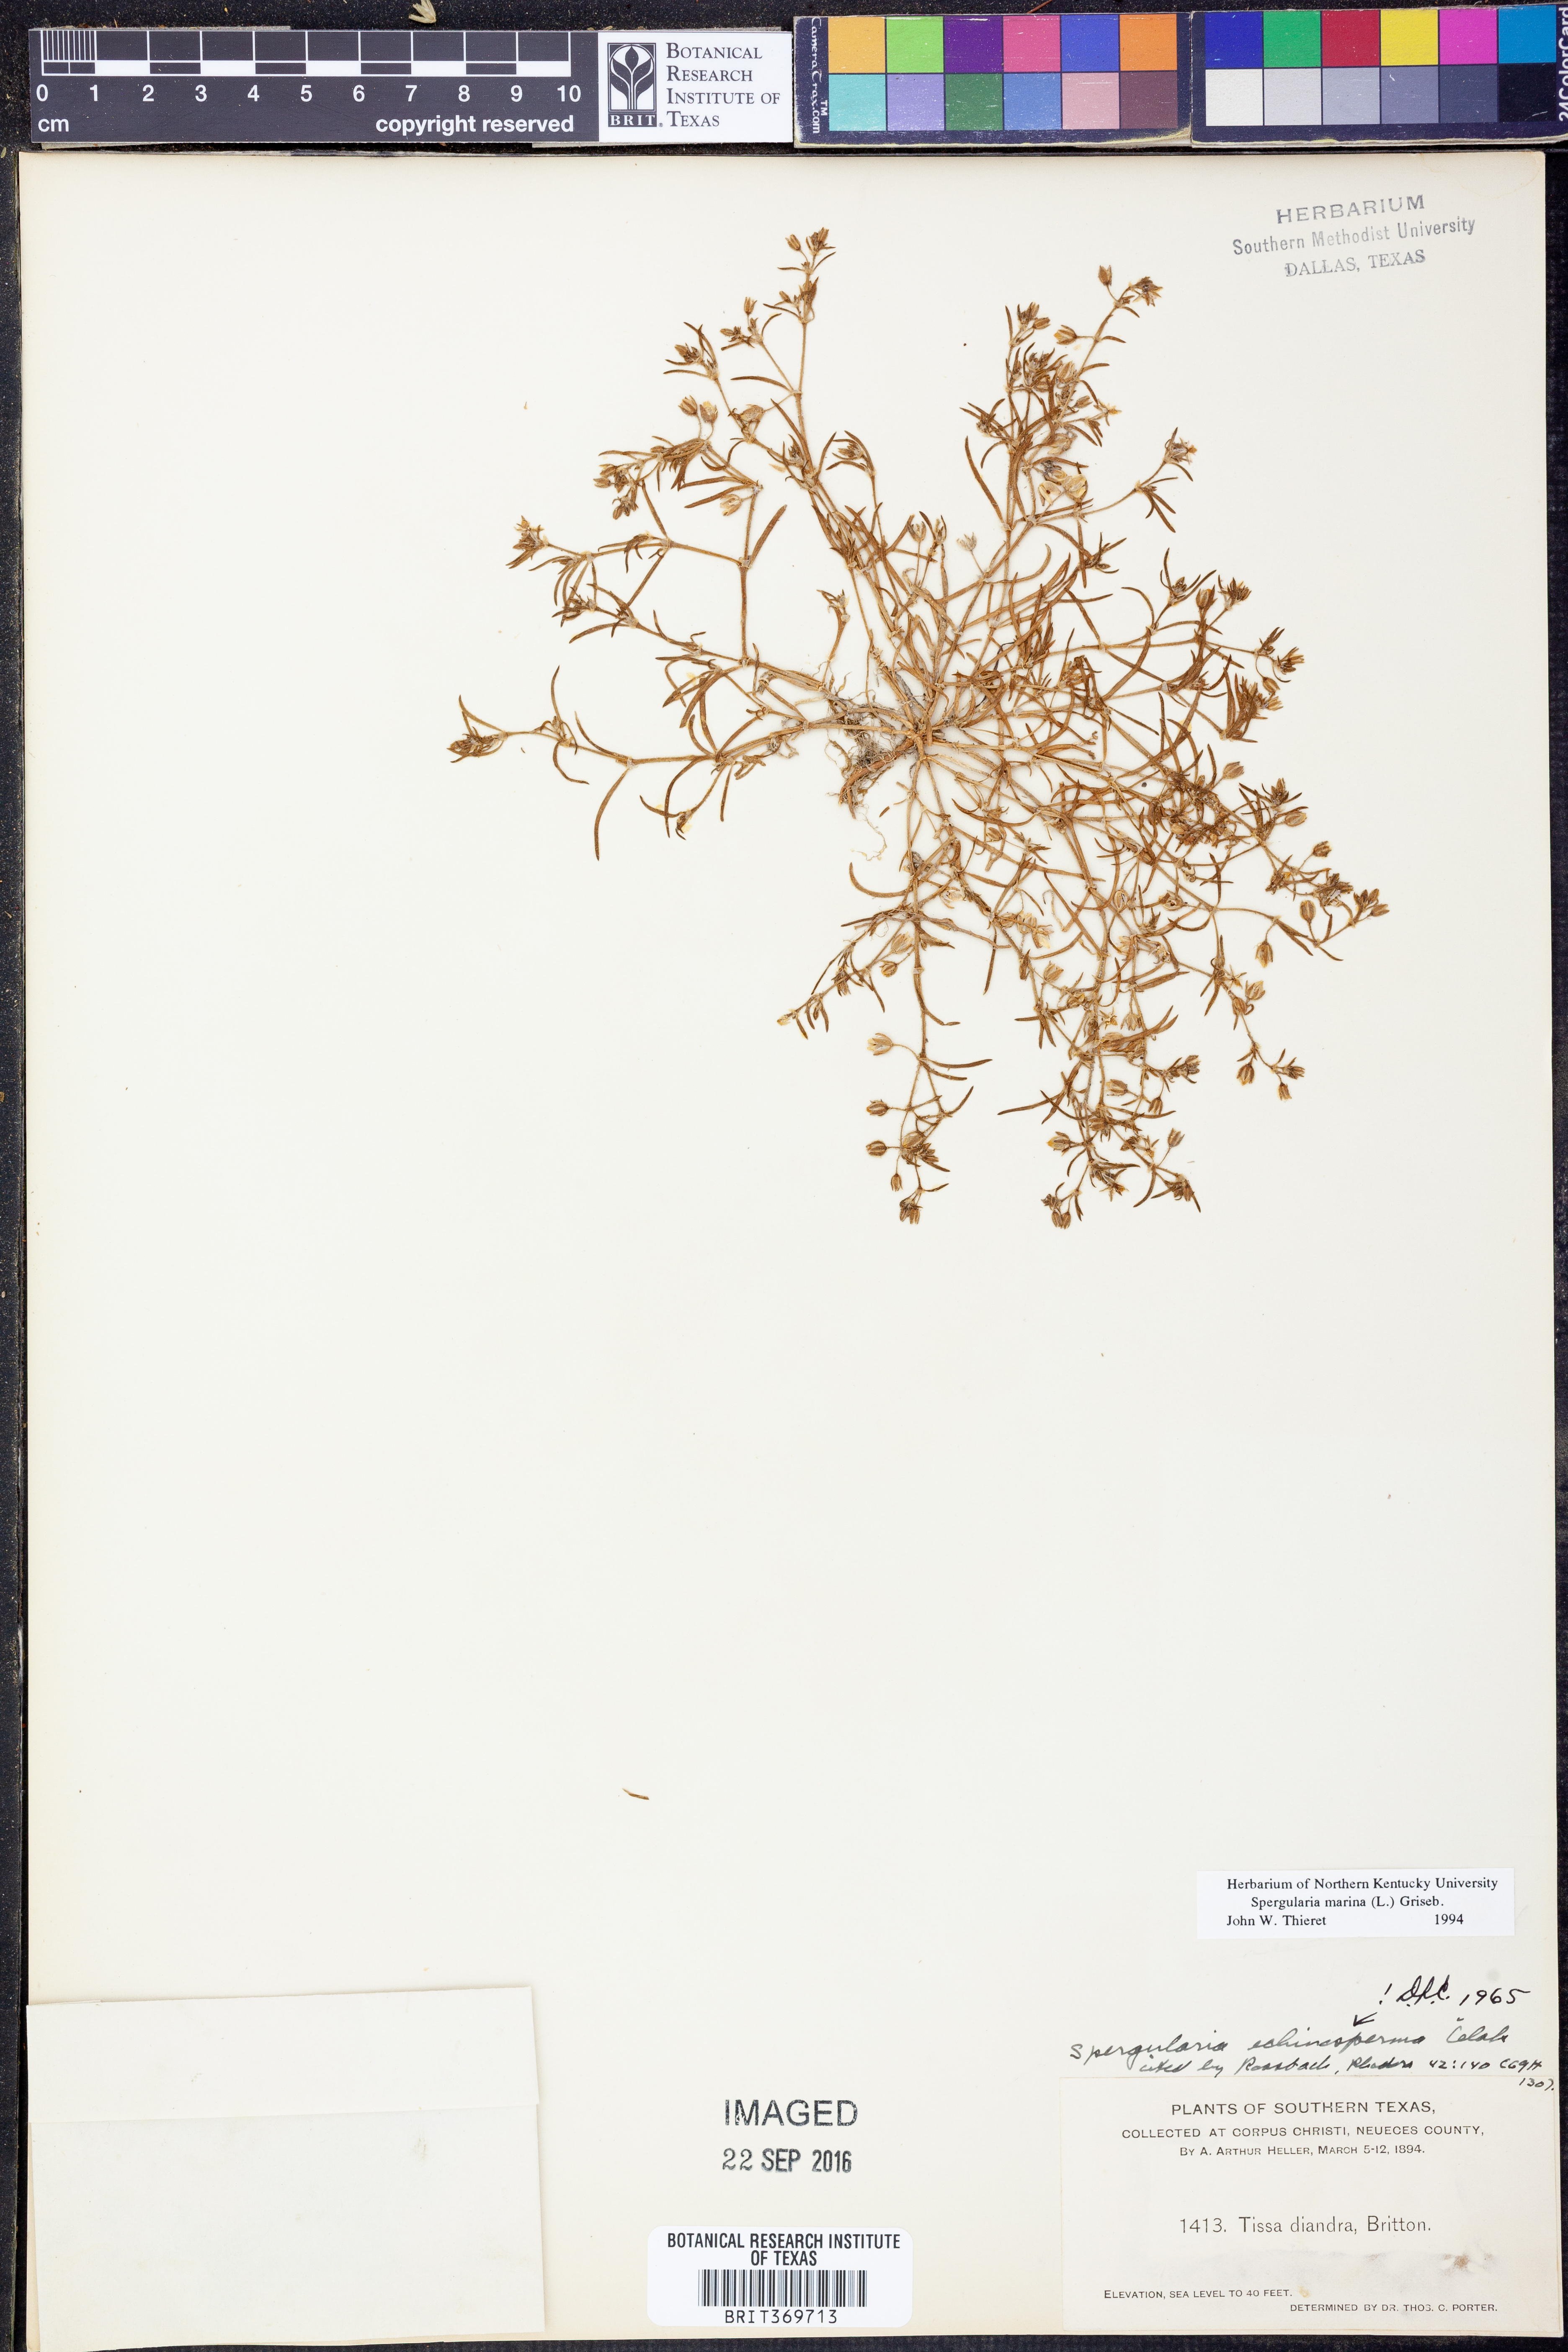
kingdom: Plantae
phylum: Tracheophyta
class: Magnoliopsida
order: Caryophyllales
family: Caryophyllaceae
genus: Spergularia
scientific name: Spergularia marina
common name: Lesser sea-spurrey
